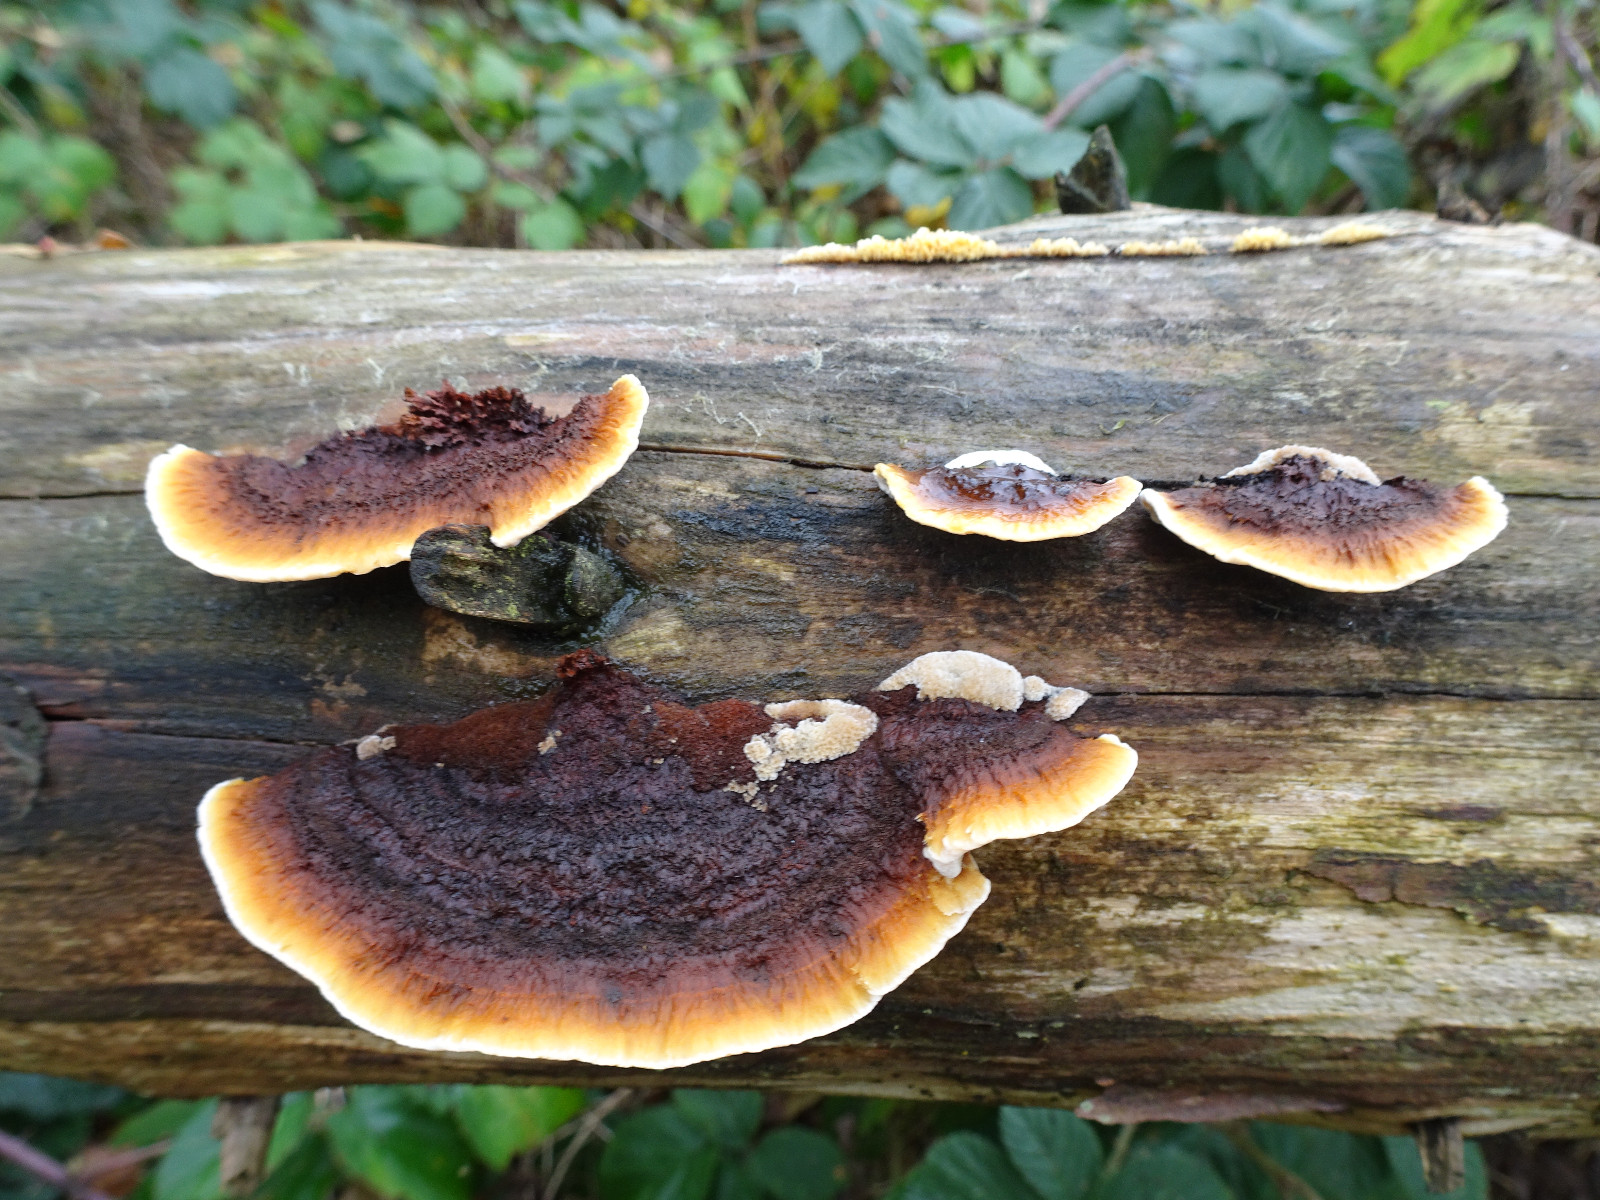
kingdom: Fungi
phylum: Basidiomycota
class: Agaricomycetes
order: Gloeophyllales
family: Gloeophyllaceae
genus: Gloeophyllum
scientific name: Gloeophyllum sepiarium
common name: fyrre-korkhat
